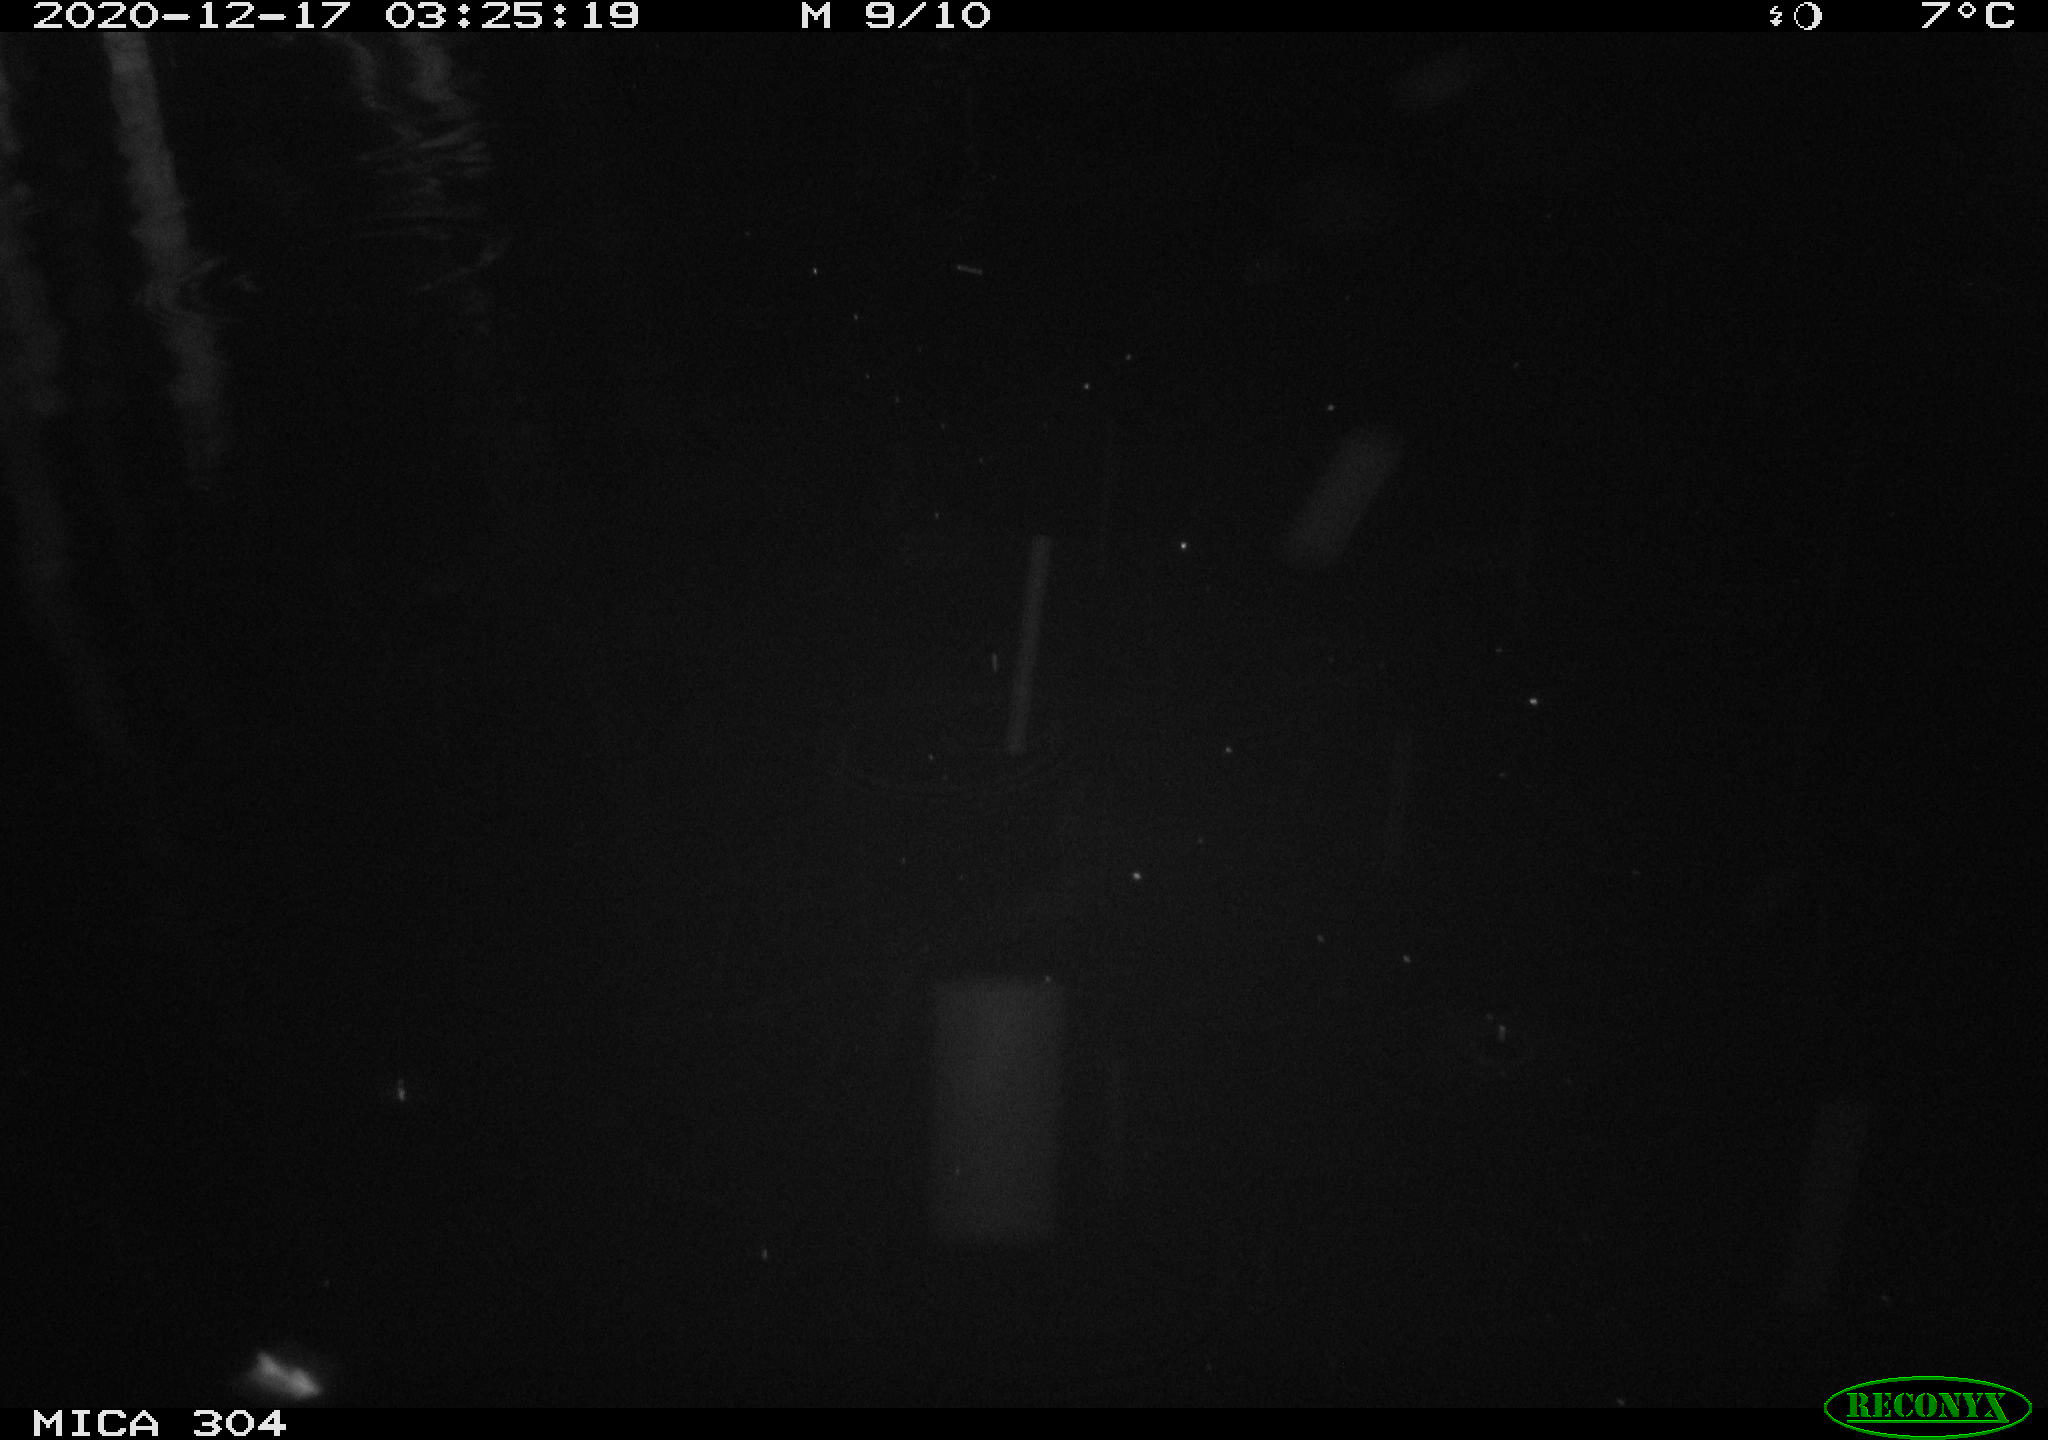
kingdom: Animalia
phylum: Chordata
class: Mammalia
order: Rodentia
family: Muridae
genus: Rattus
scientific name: Rattus norvegicus
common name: Brown rat
